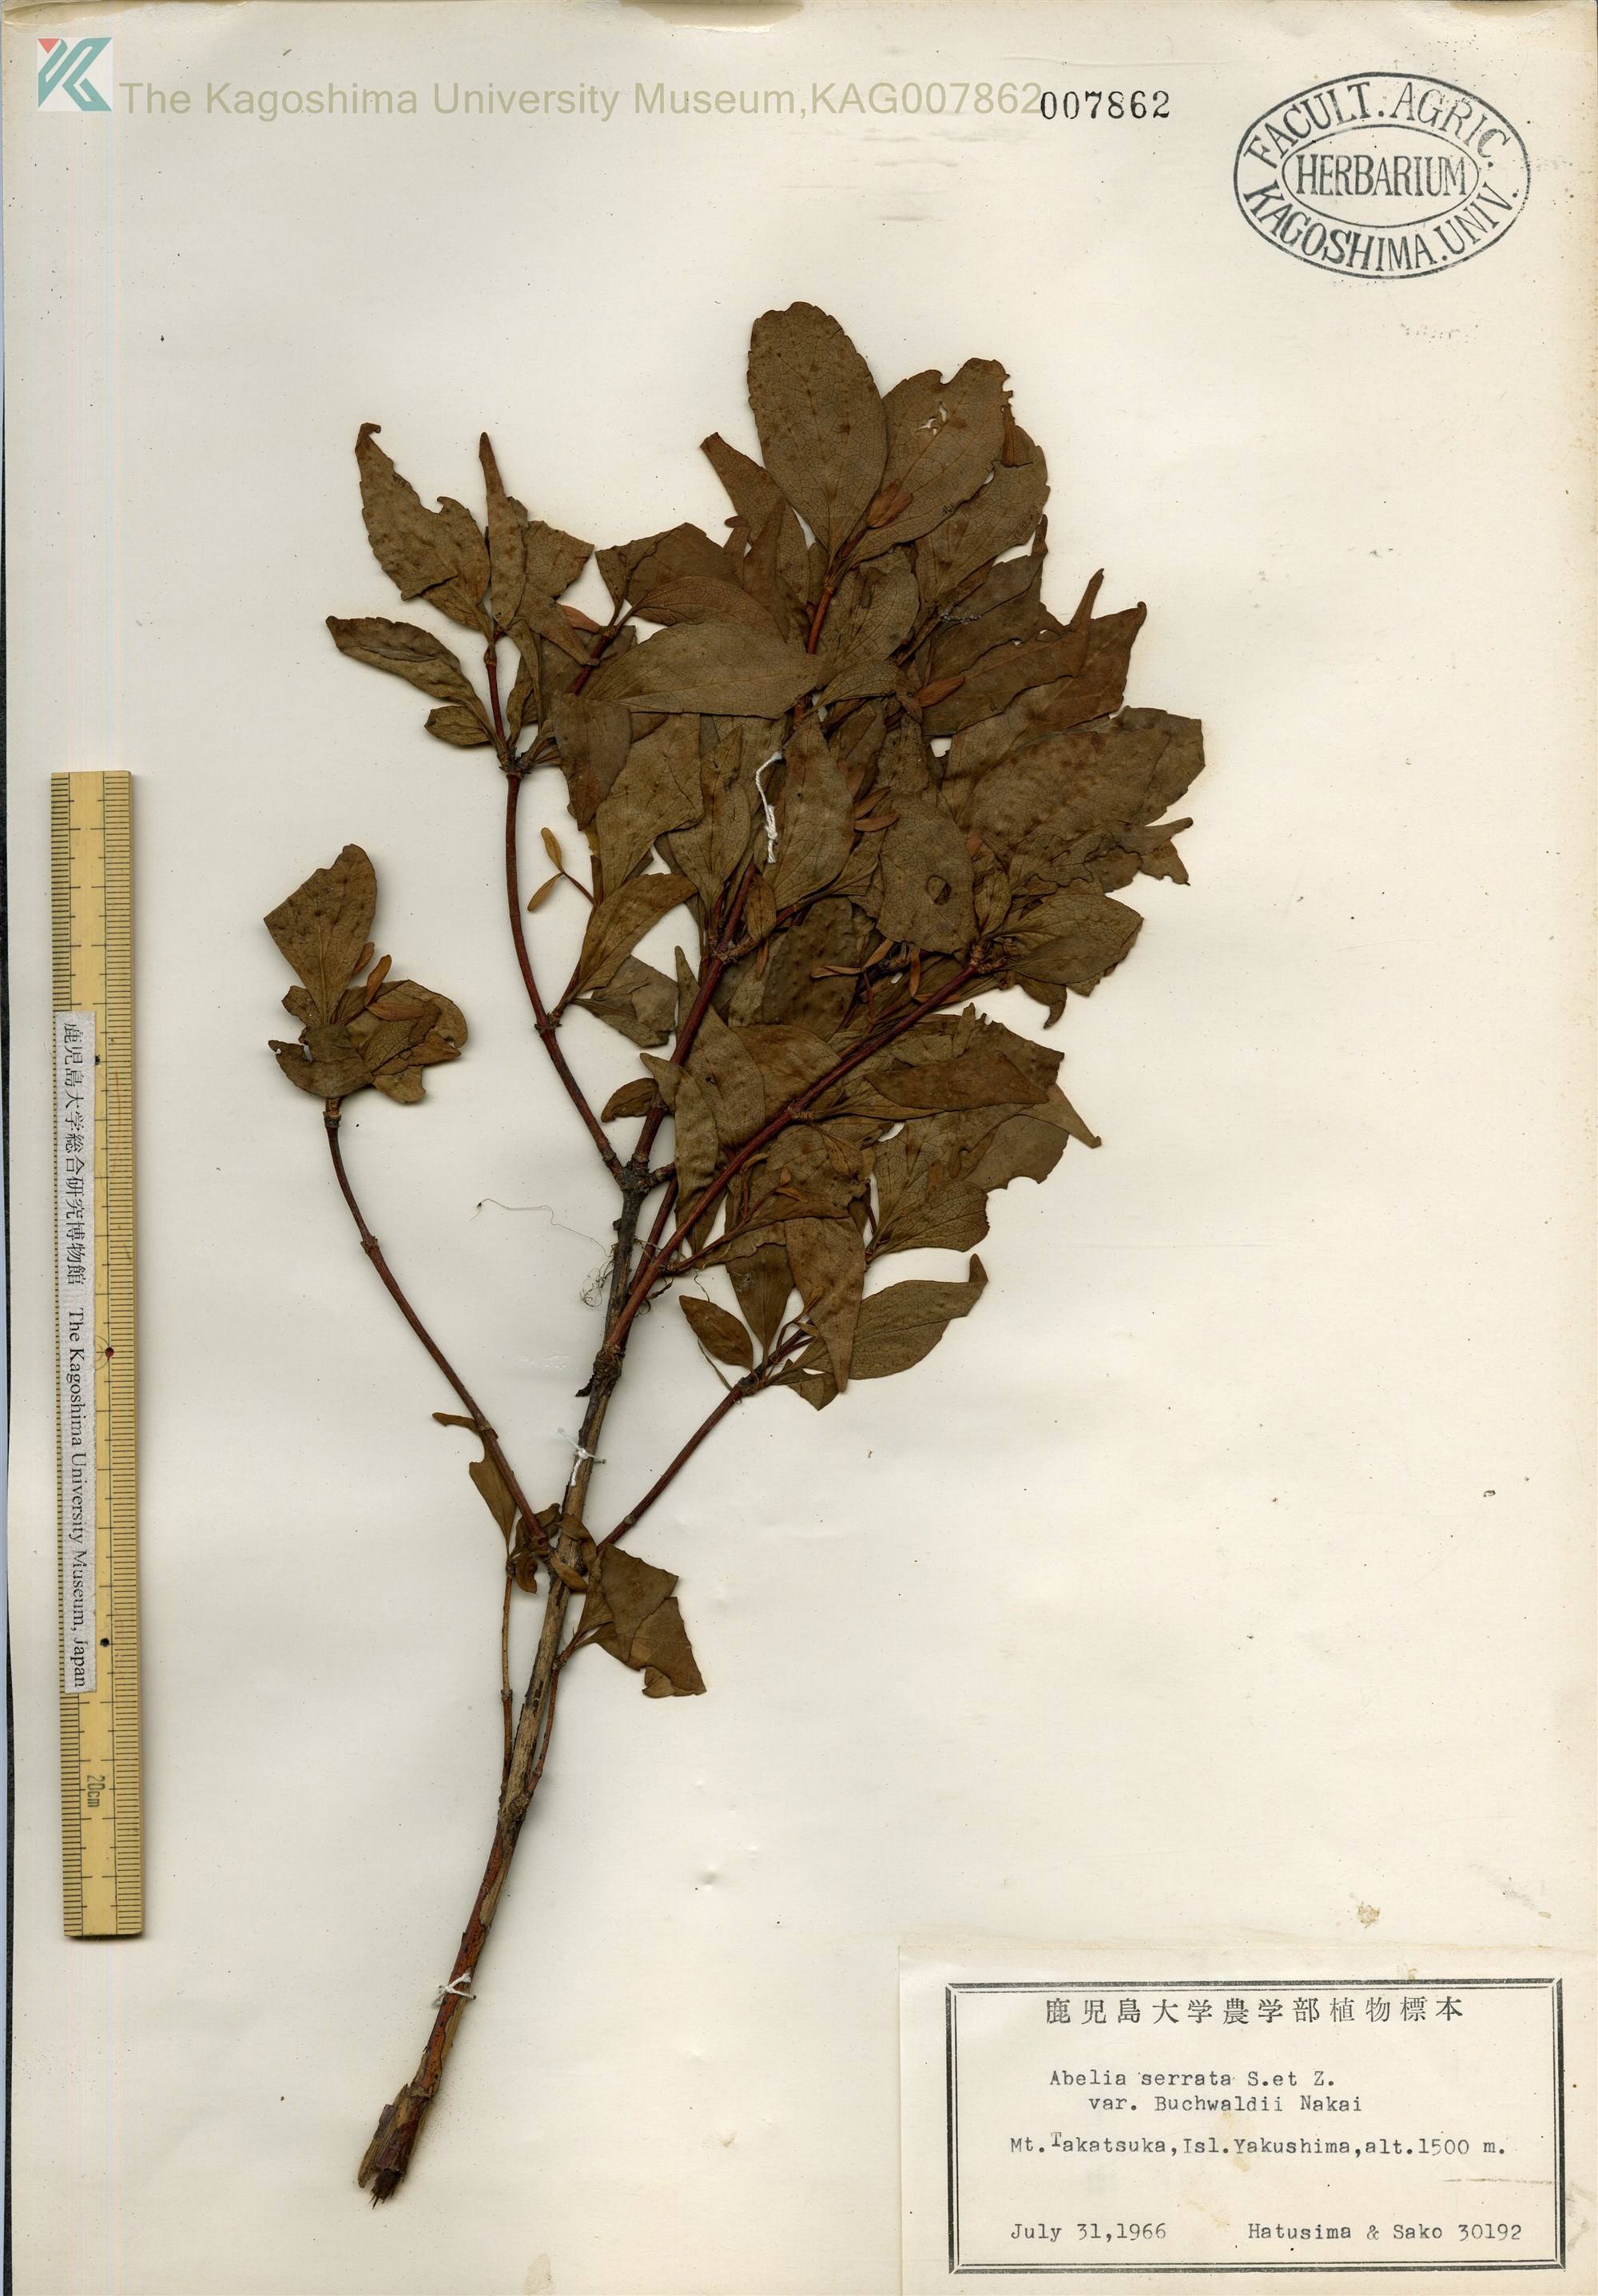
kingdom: Plantae
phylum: Tracheophyta
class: Magnoliopsida
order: Dipsacales
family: Caprifoliaceae
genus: Diabelia
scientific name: Diabelia serrata
